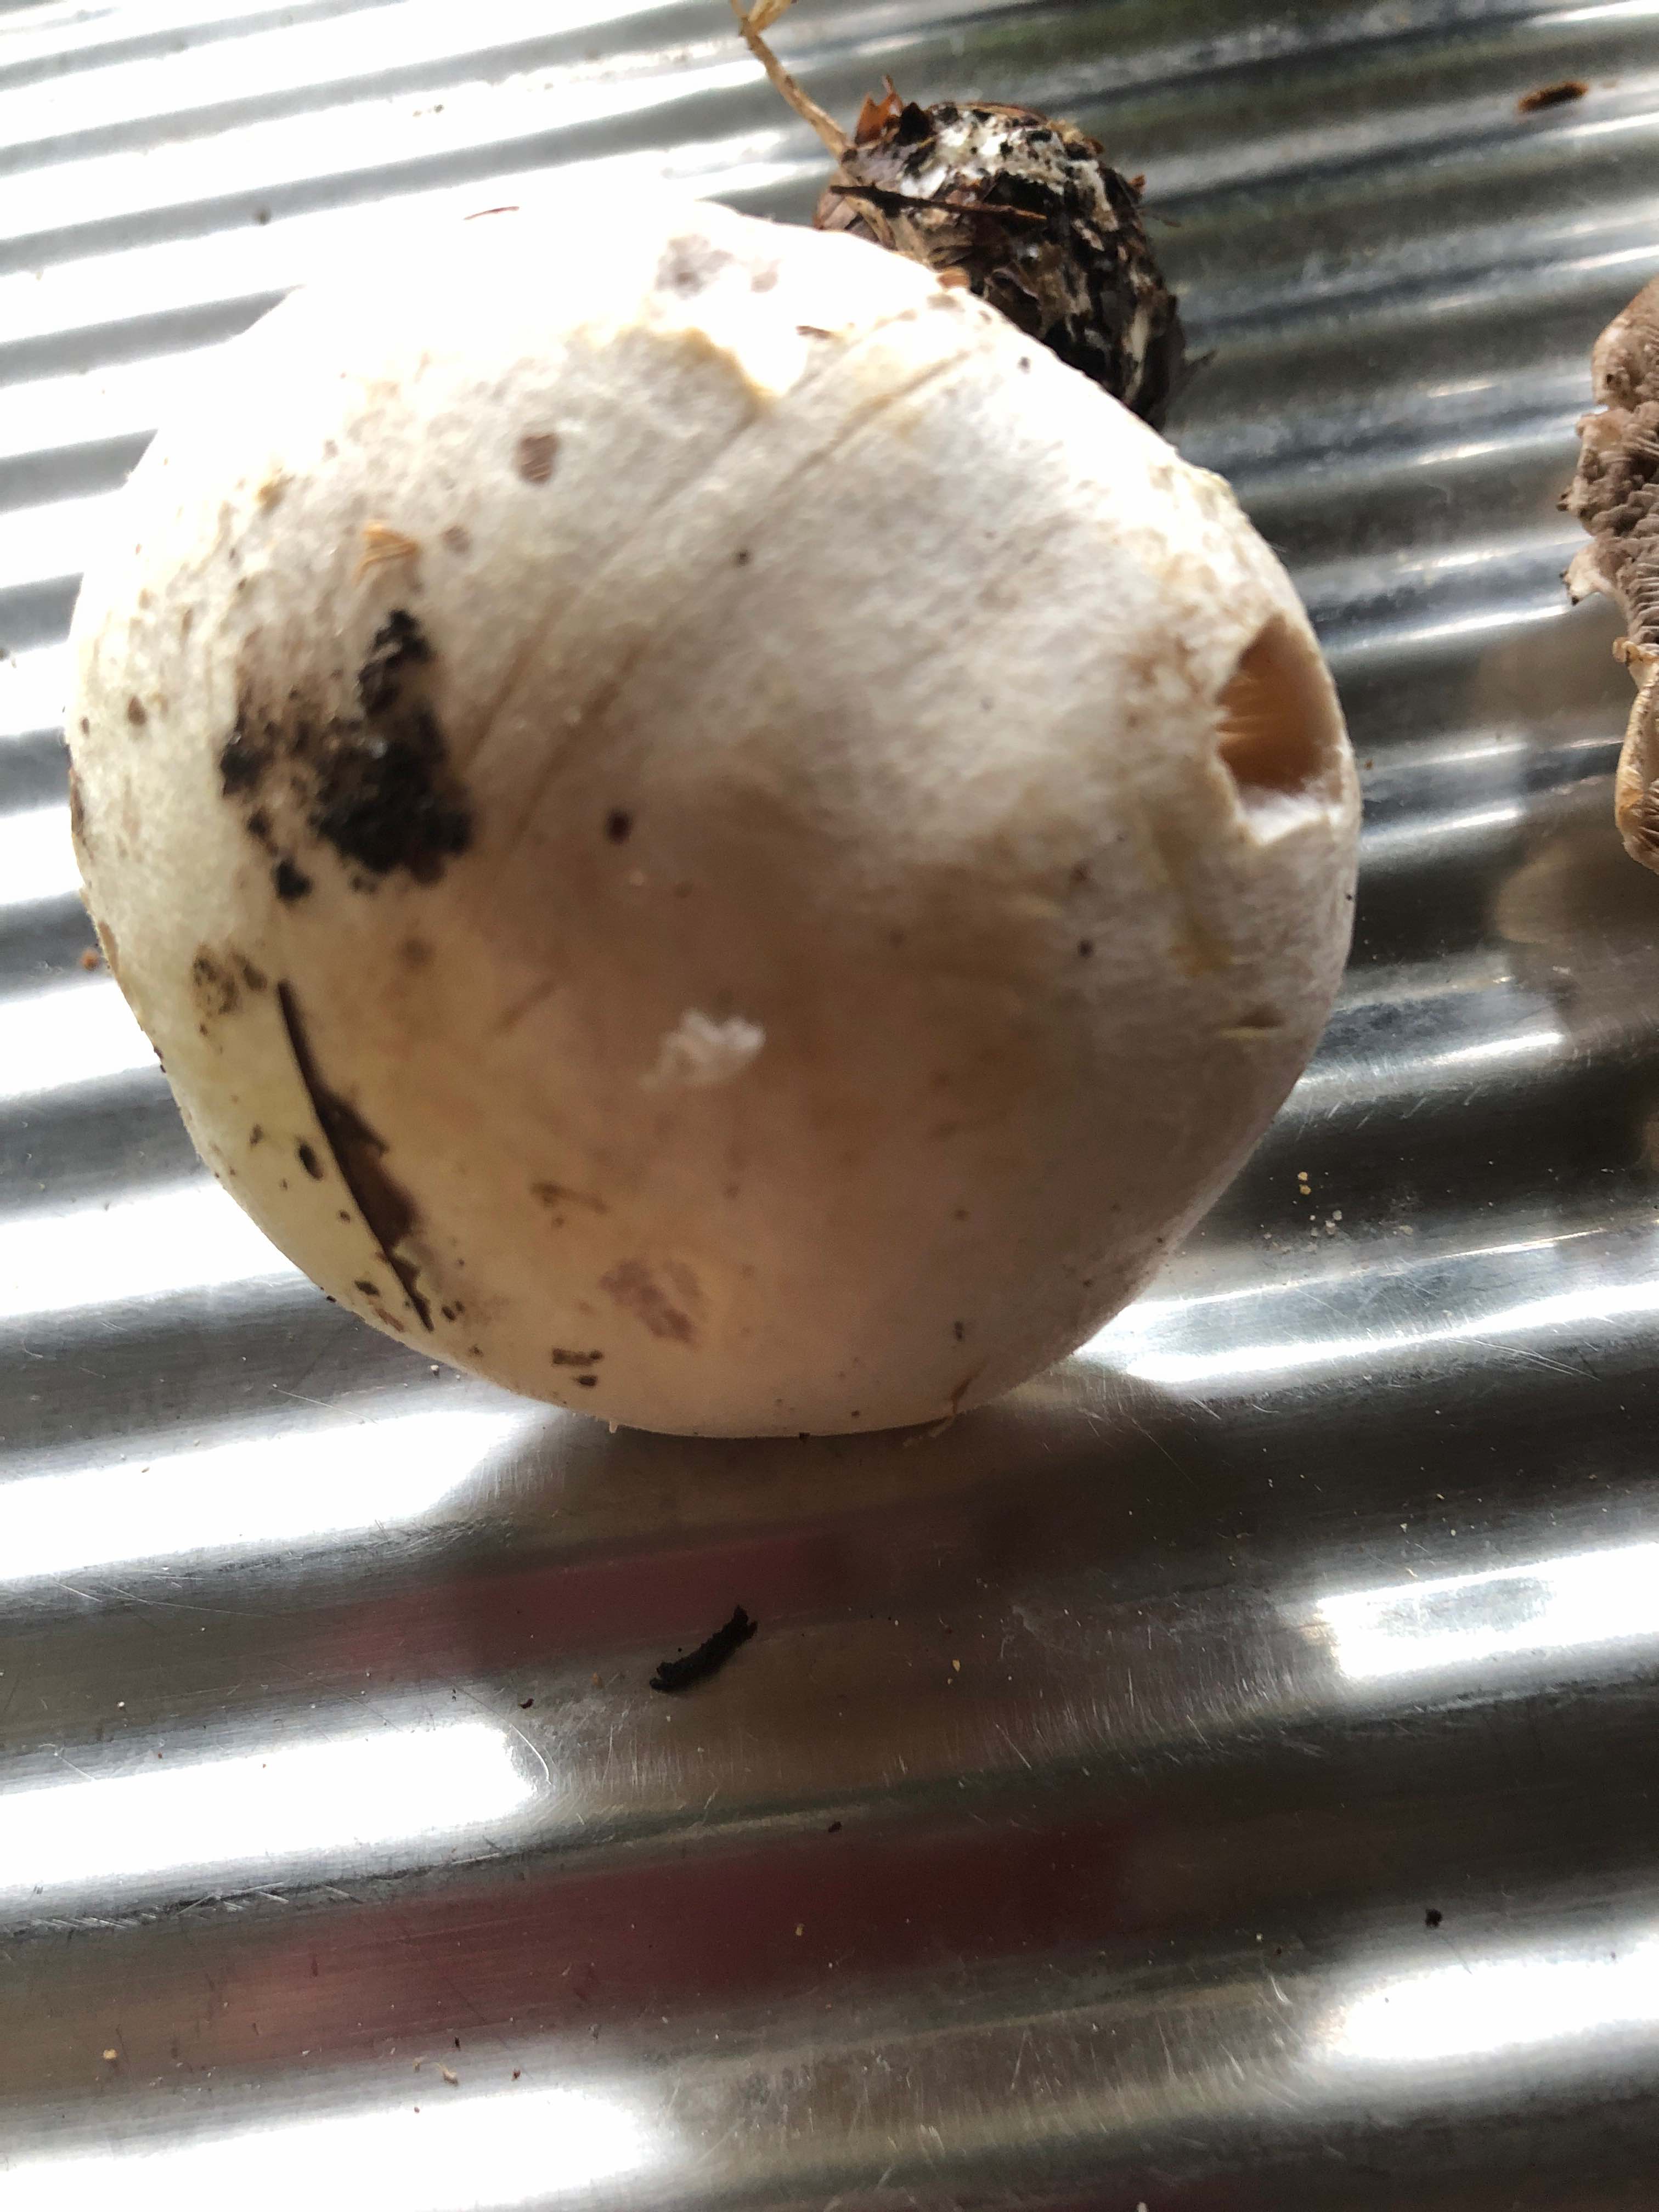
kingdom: Fungi
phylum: Basidiomycota
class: Agaricomycetes
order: Agaricales
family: Agaricaceae
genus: Agaricus
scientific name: Agaricus
